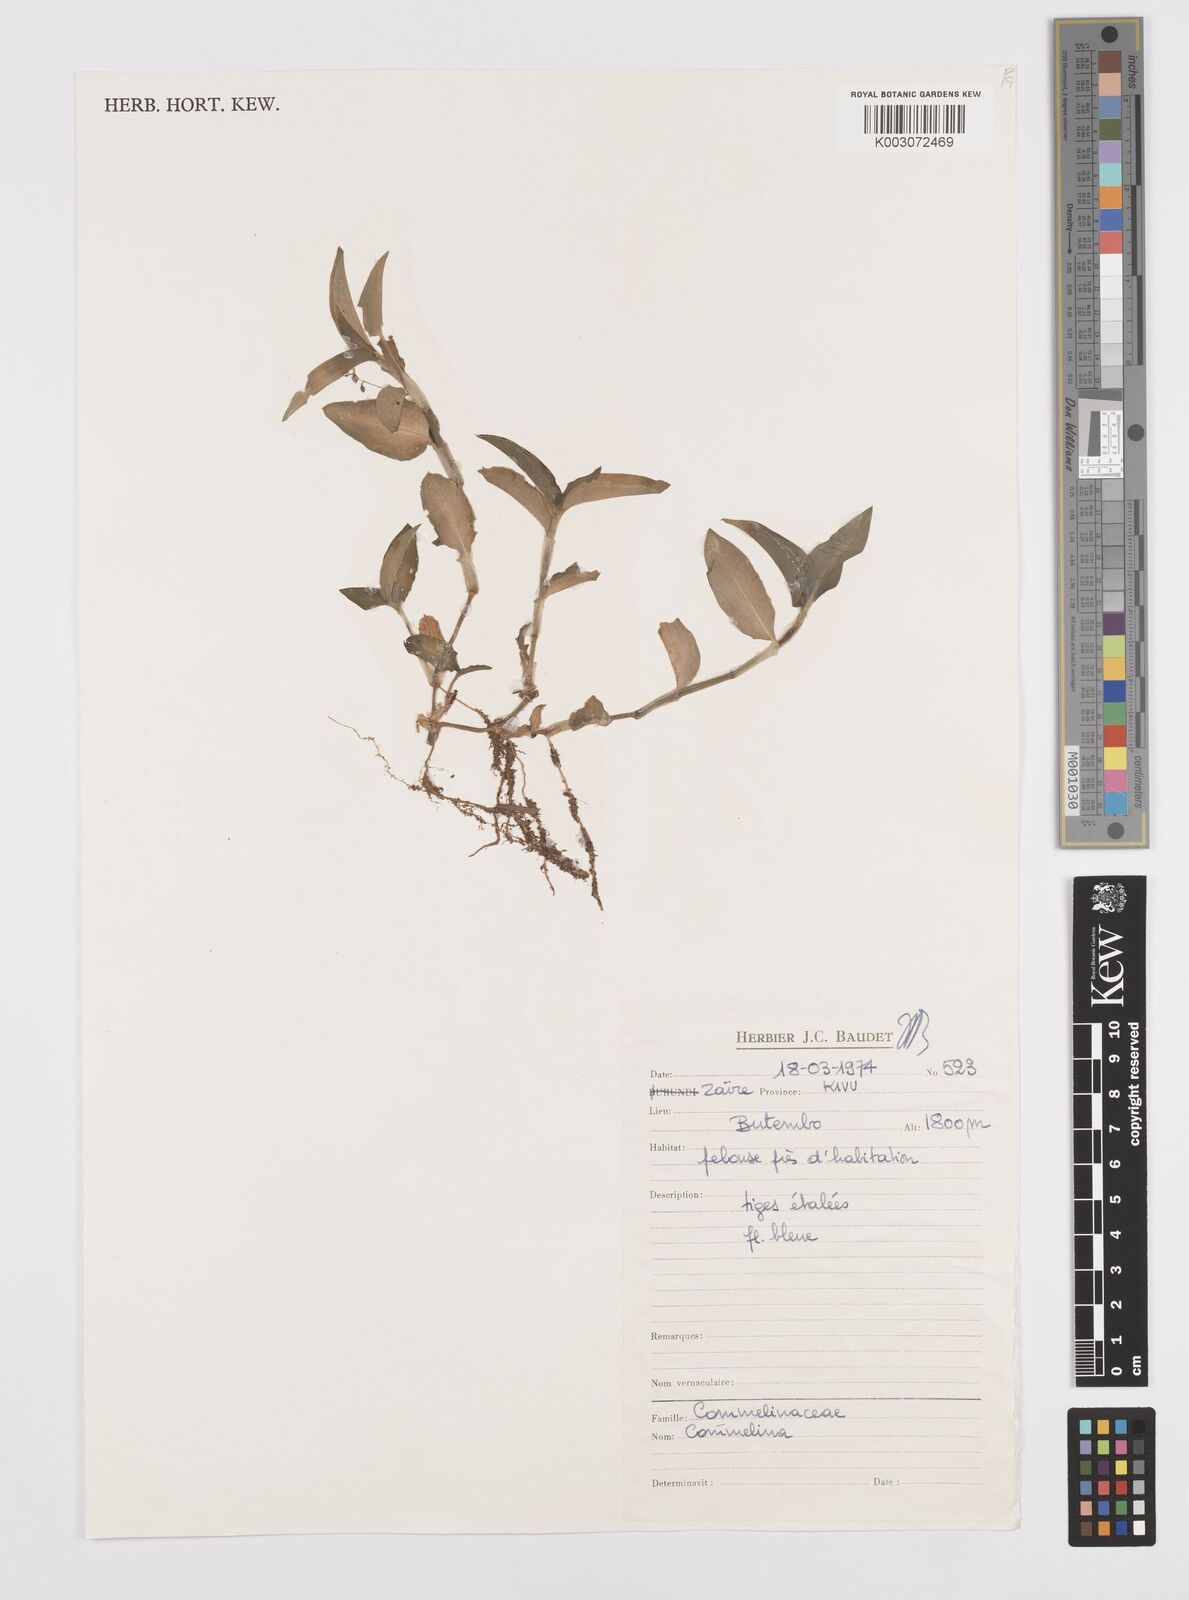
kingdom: Plantae
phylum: Tracheophyta
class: Liliopsida
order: Commelinales
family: Commelinaceae
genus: Commelina
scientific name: Commelina
